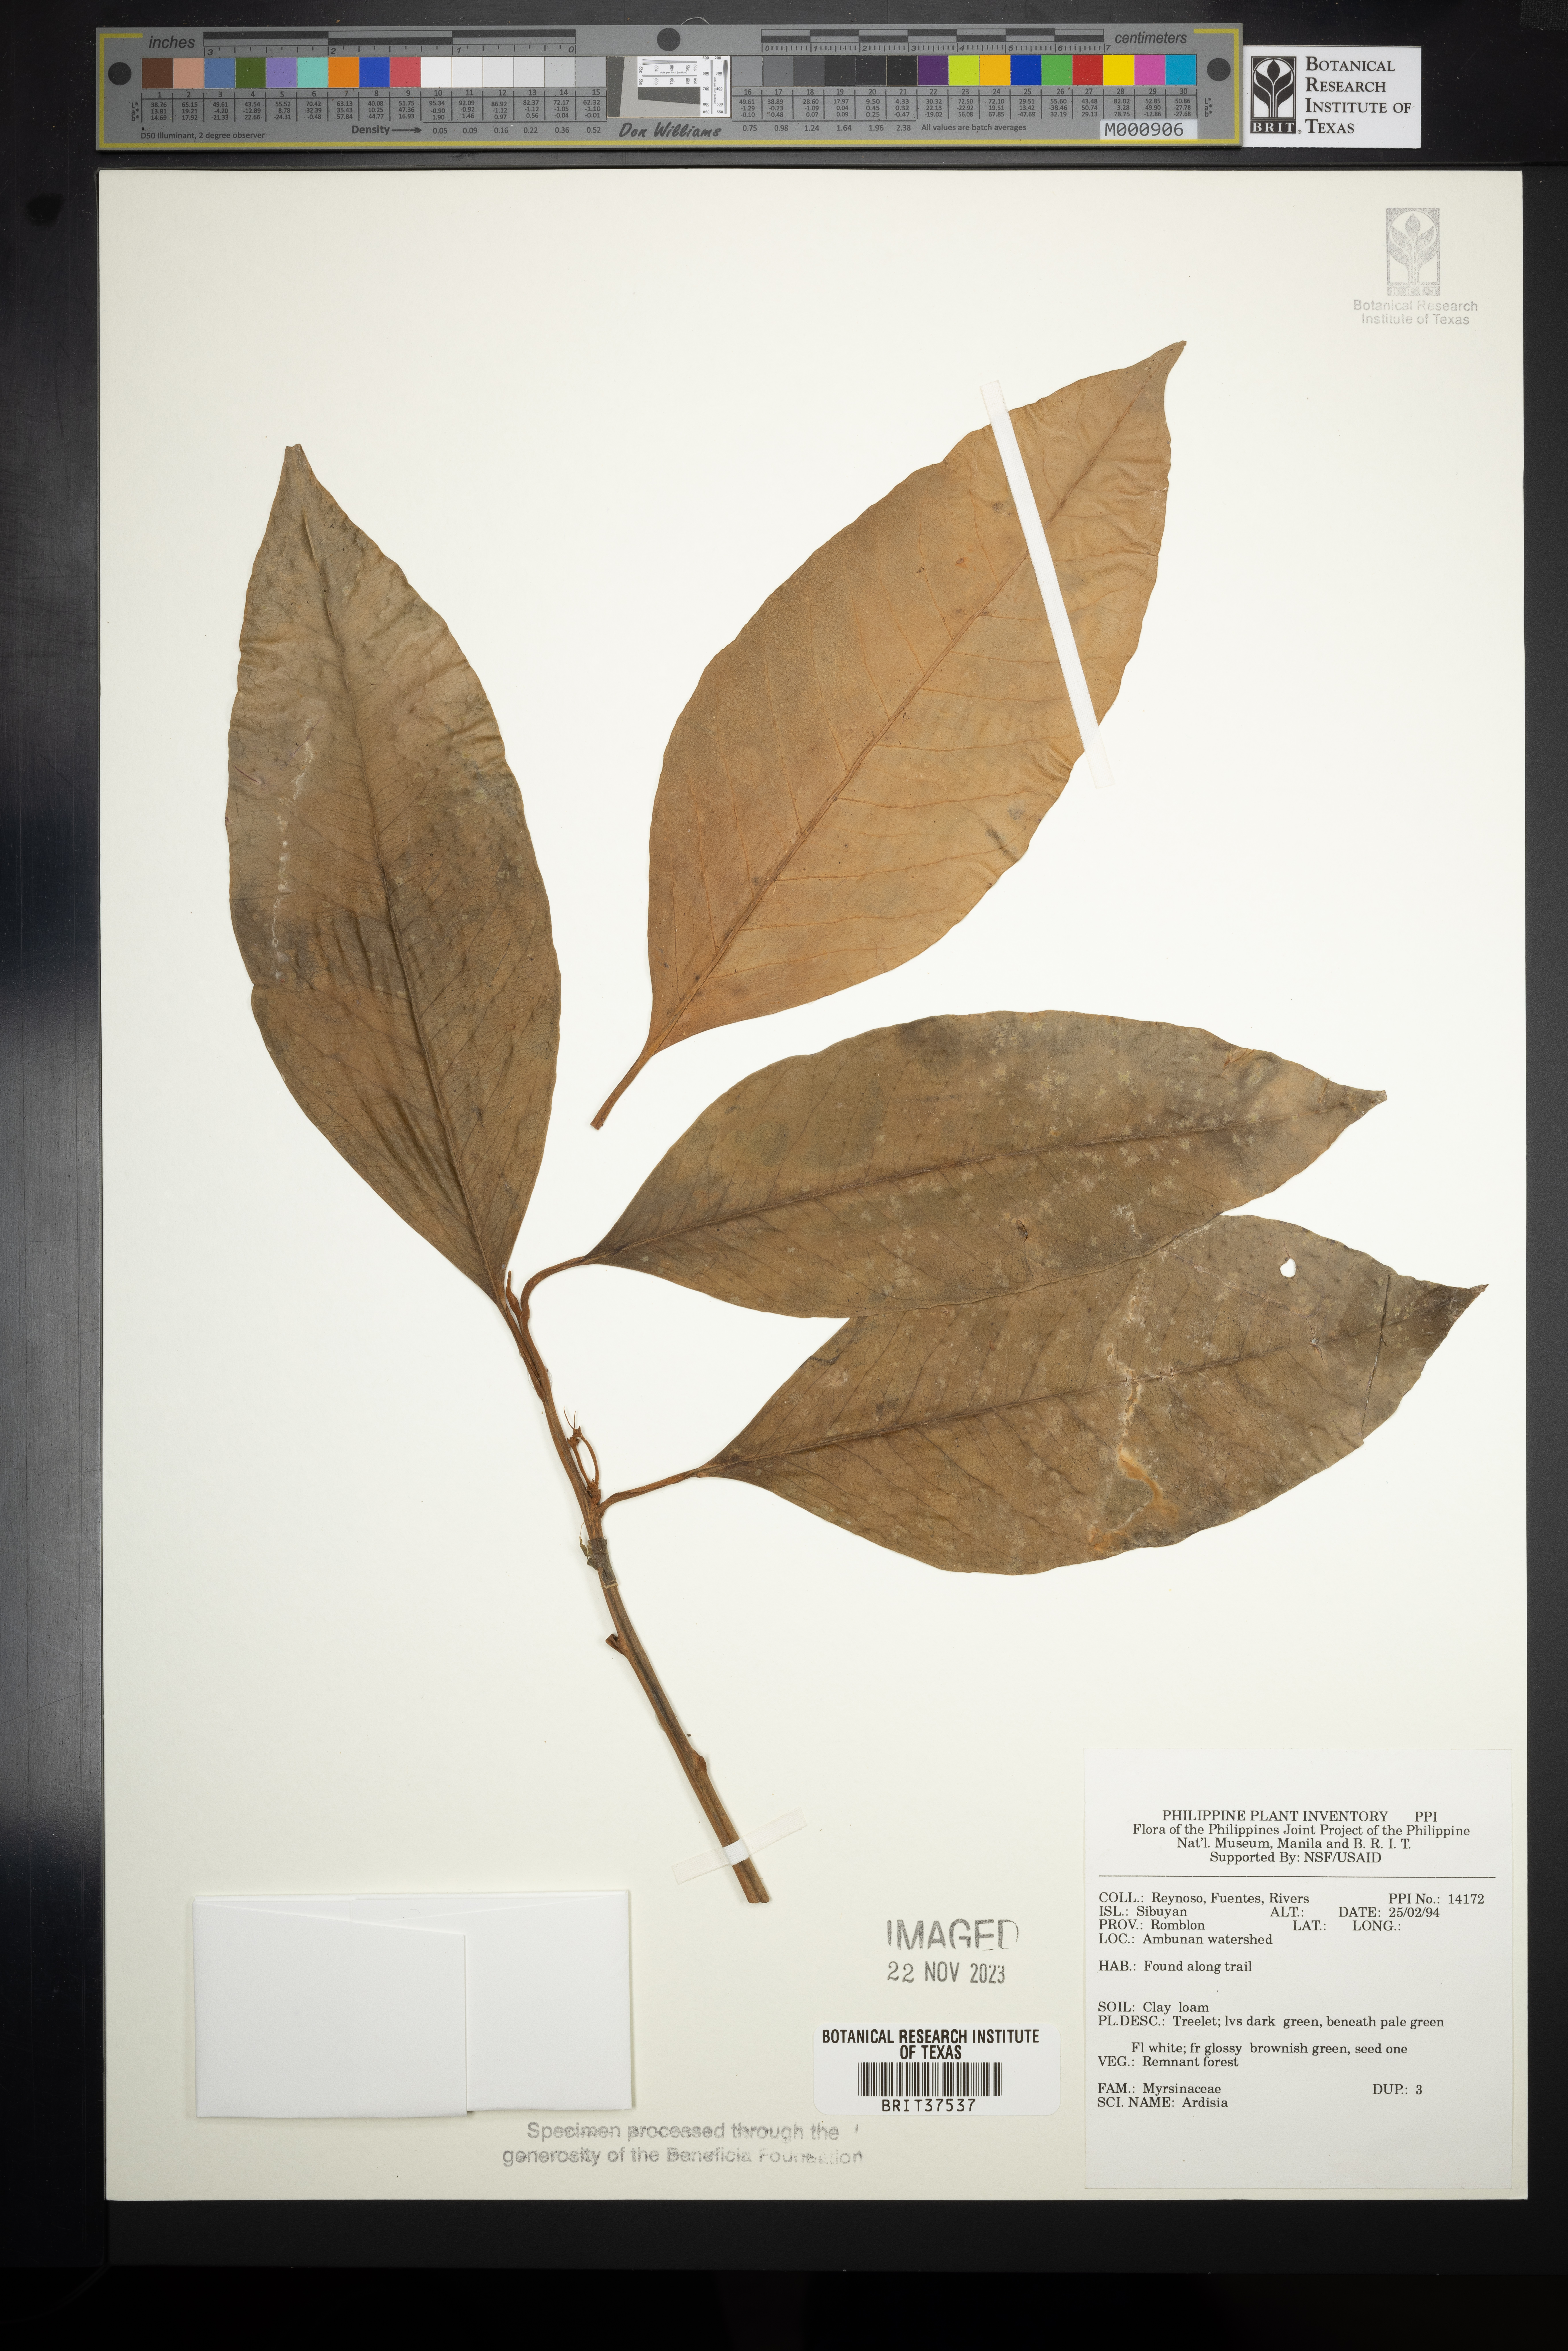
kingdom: Plantae
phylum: Tracheophyta
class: Magnoliopsida
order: Ericales
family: Primulaceae
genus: Ardisia
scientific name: Ardisia
